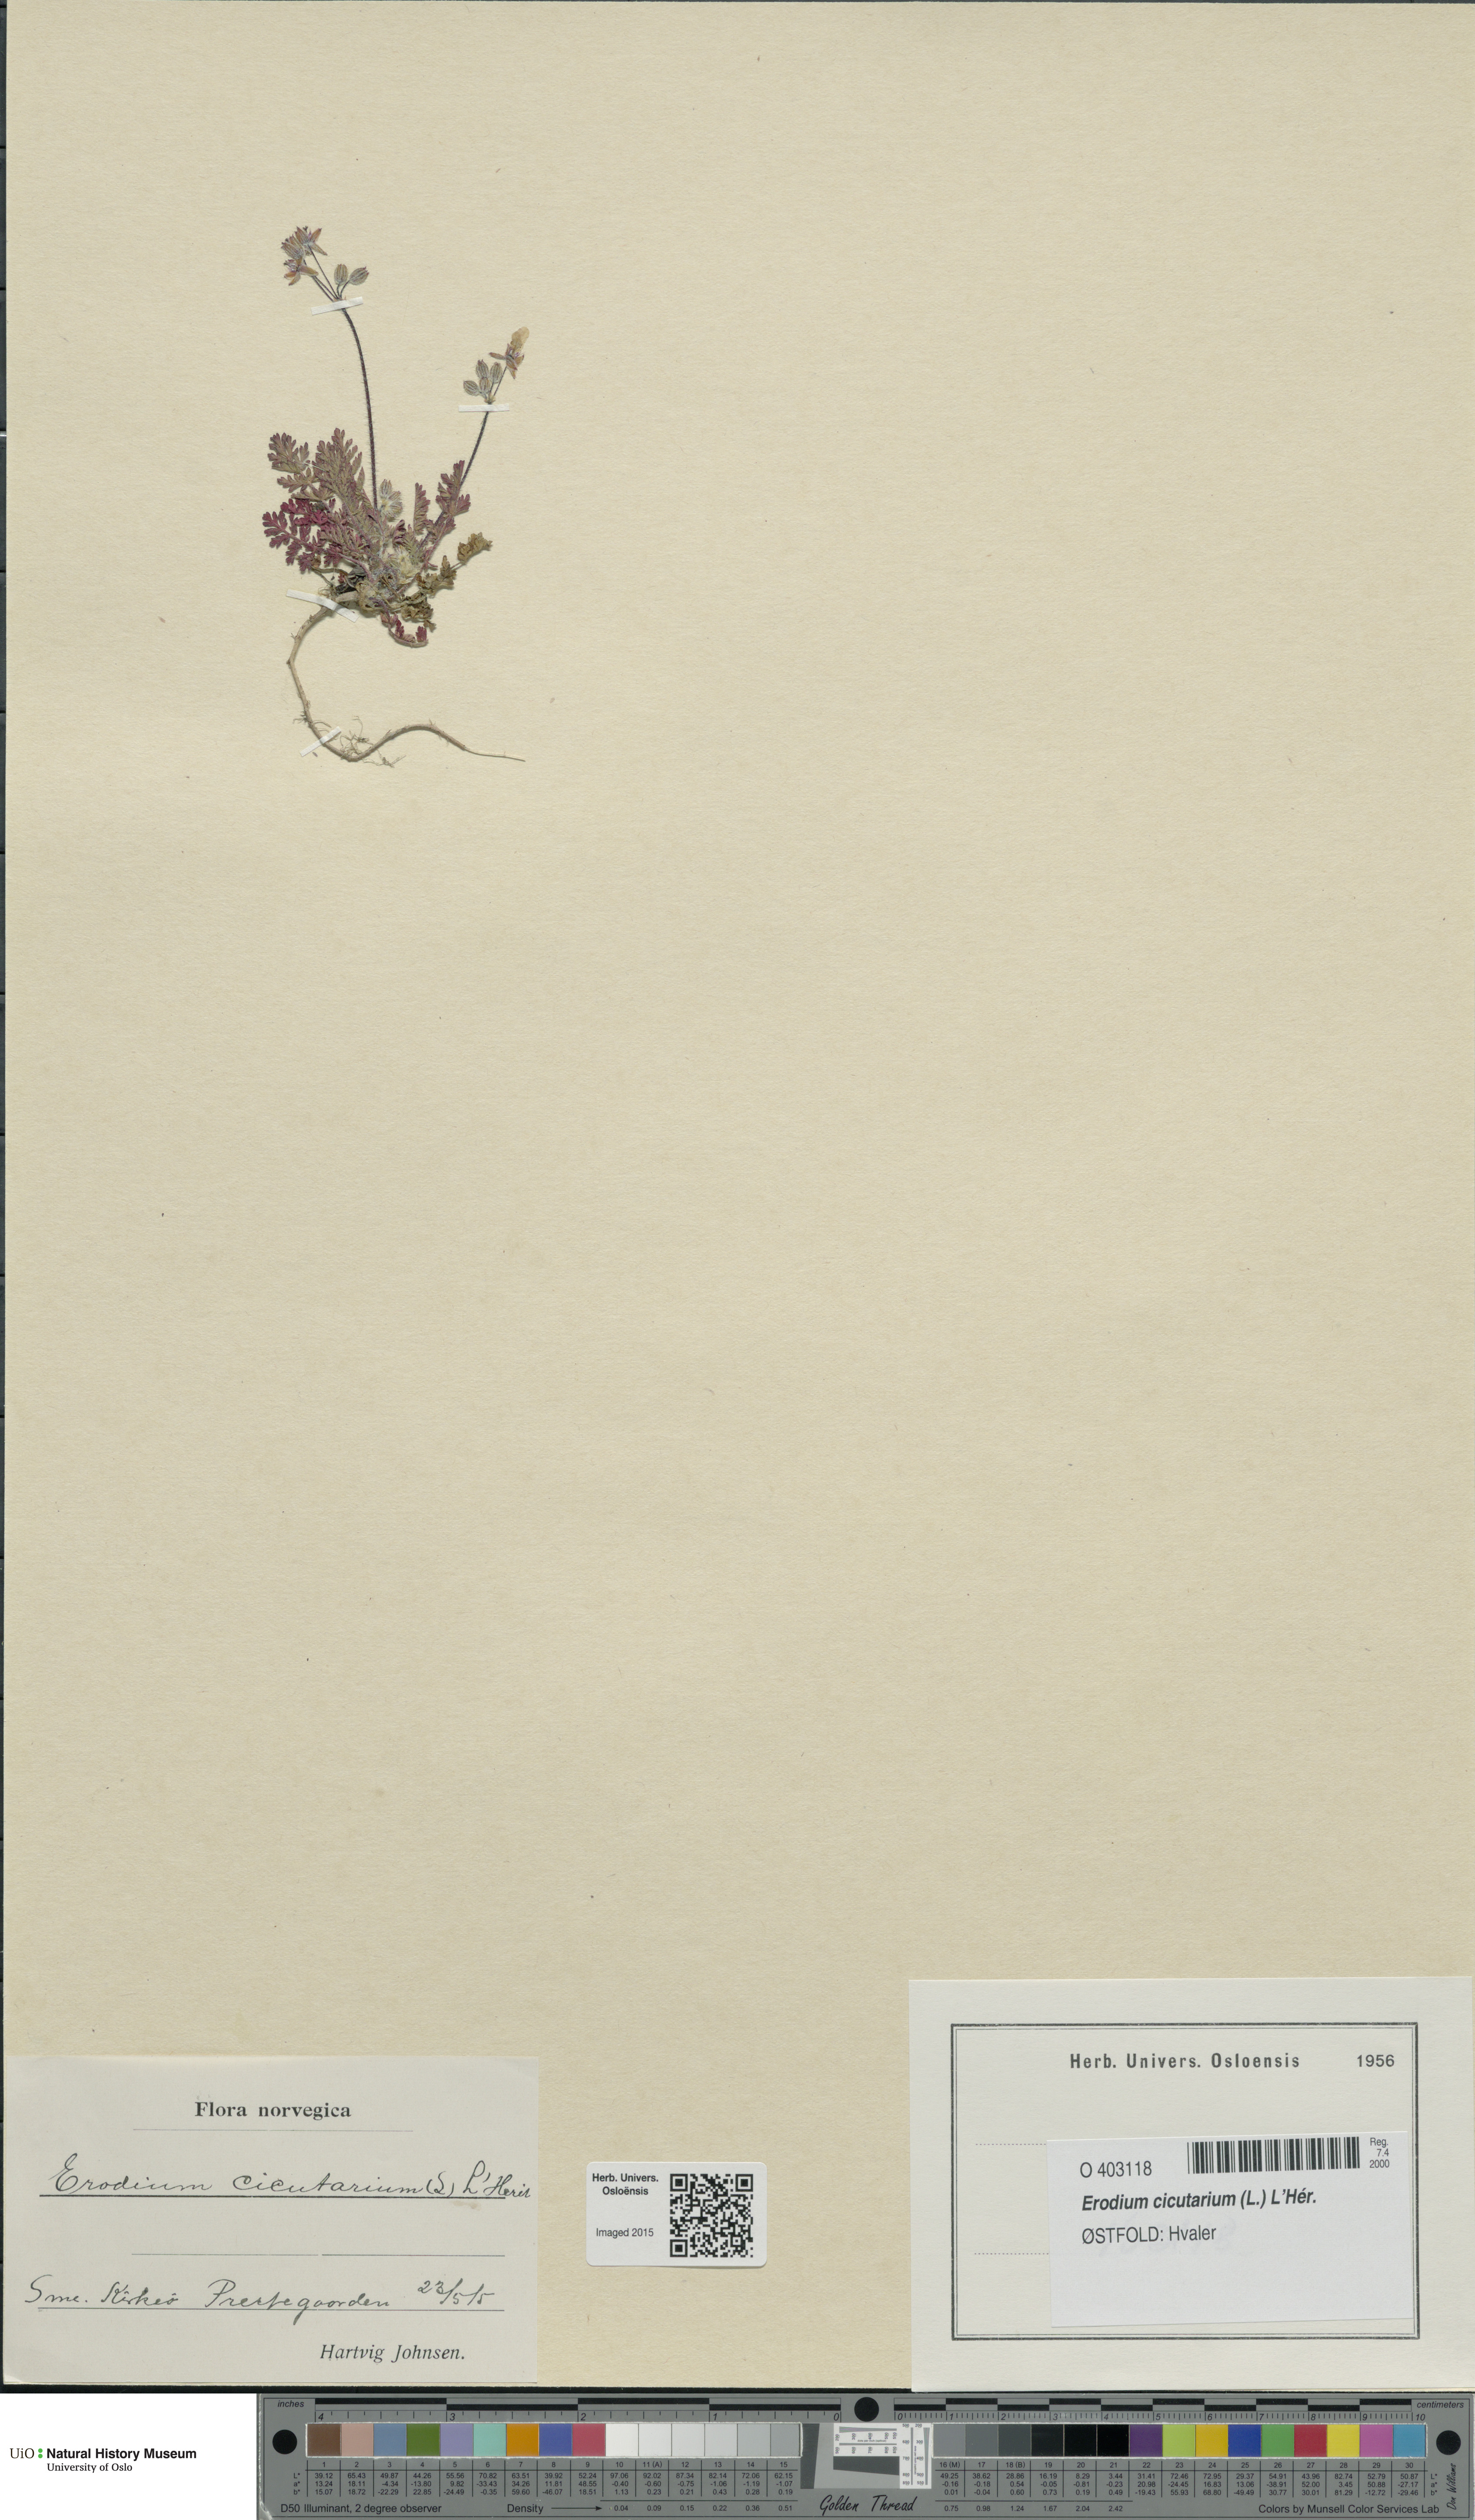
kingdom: Plantae
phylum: Tracheophyta
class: Magnoliopsida
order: Geraniales
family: Geraniaceae
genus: Erodium
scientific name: Erodium cicutarium
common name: Common stork's-bill
